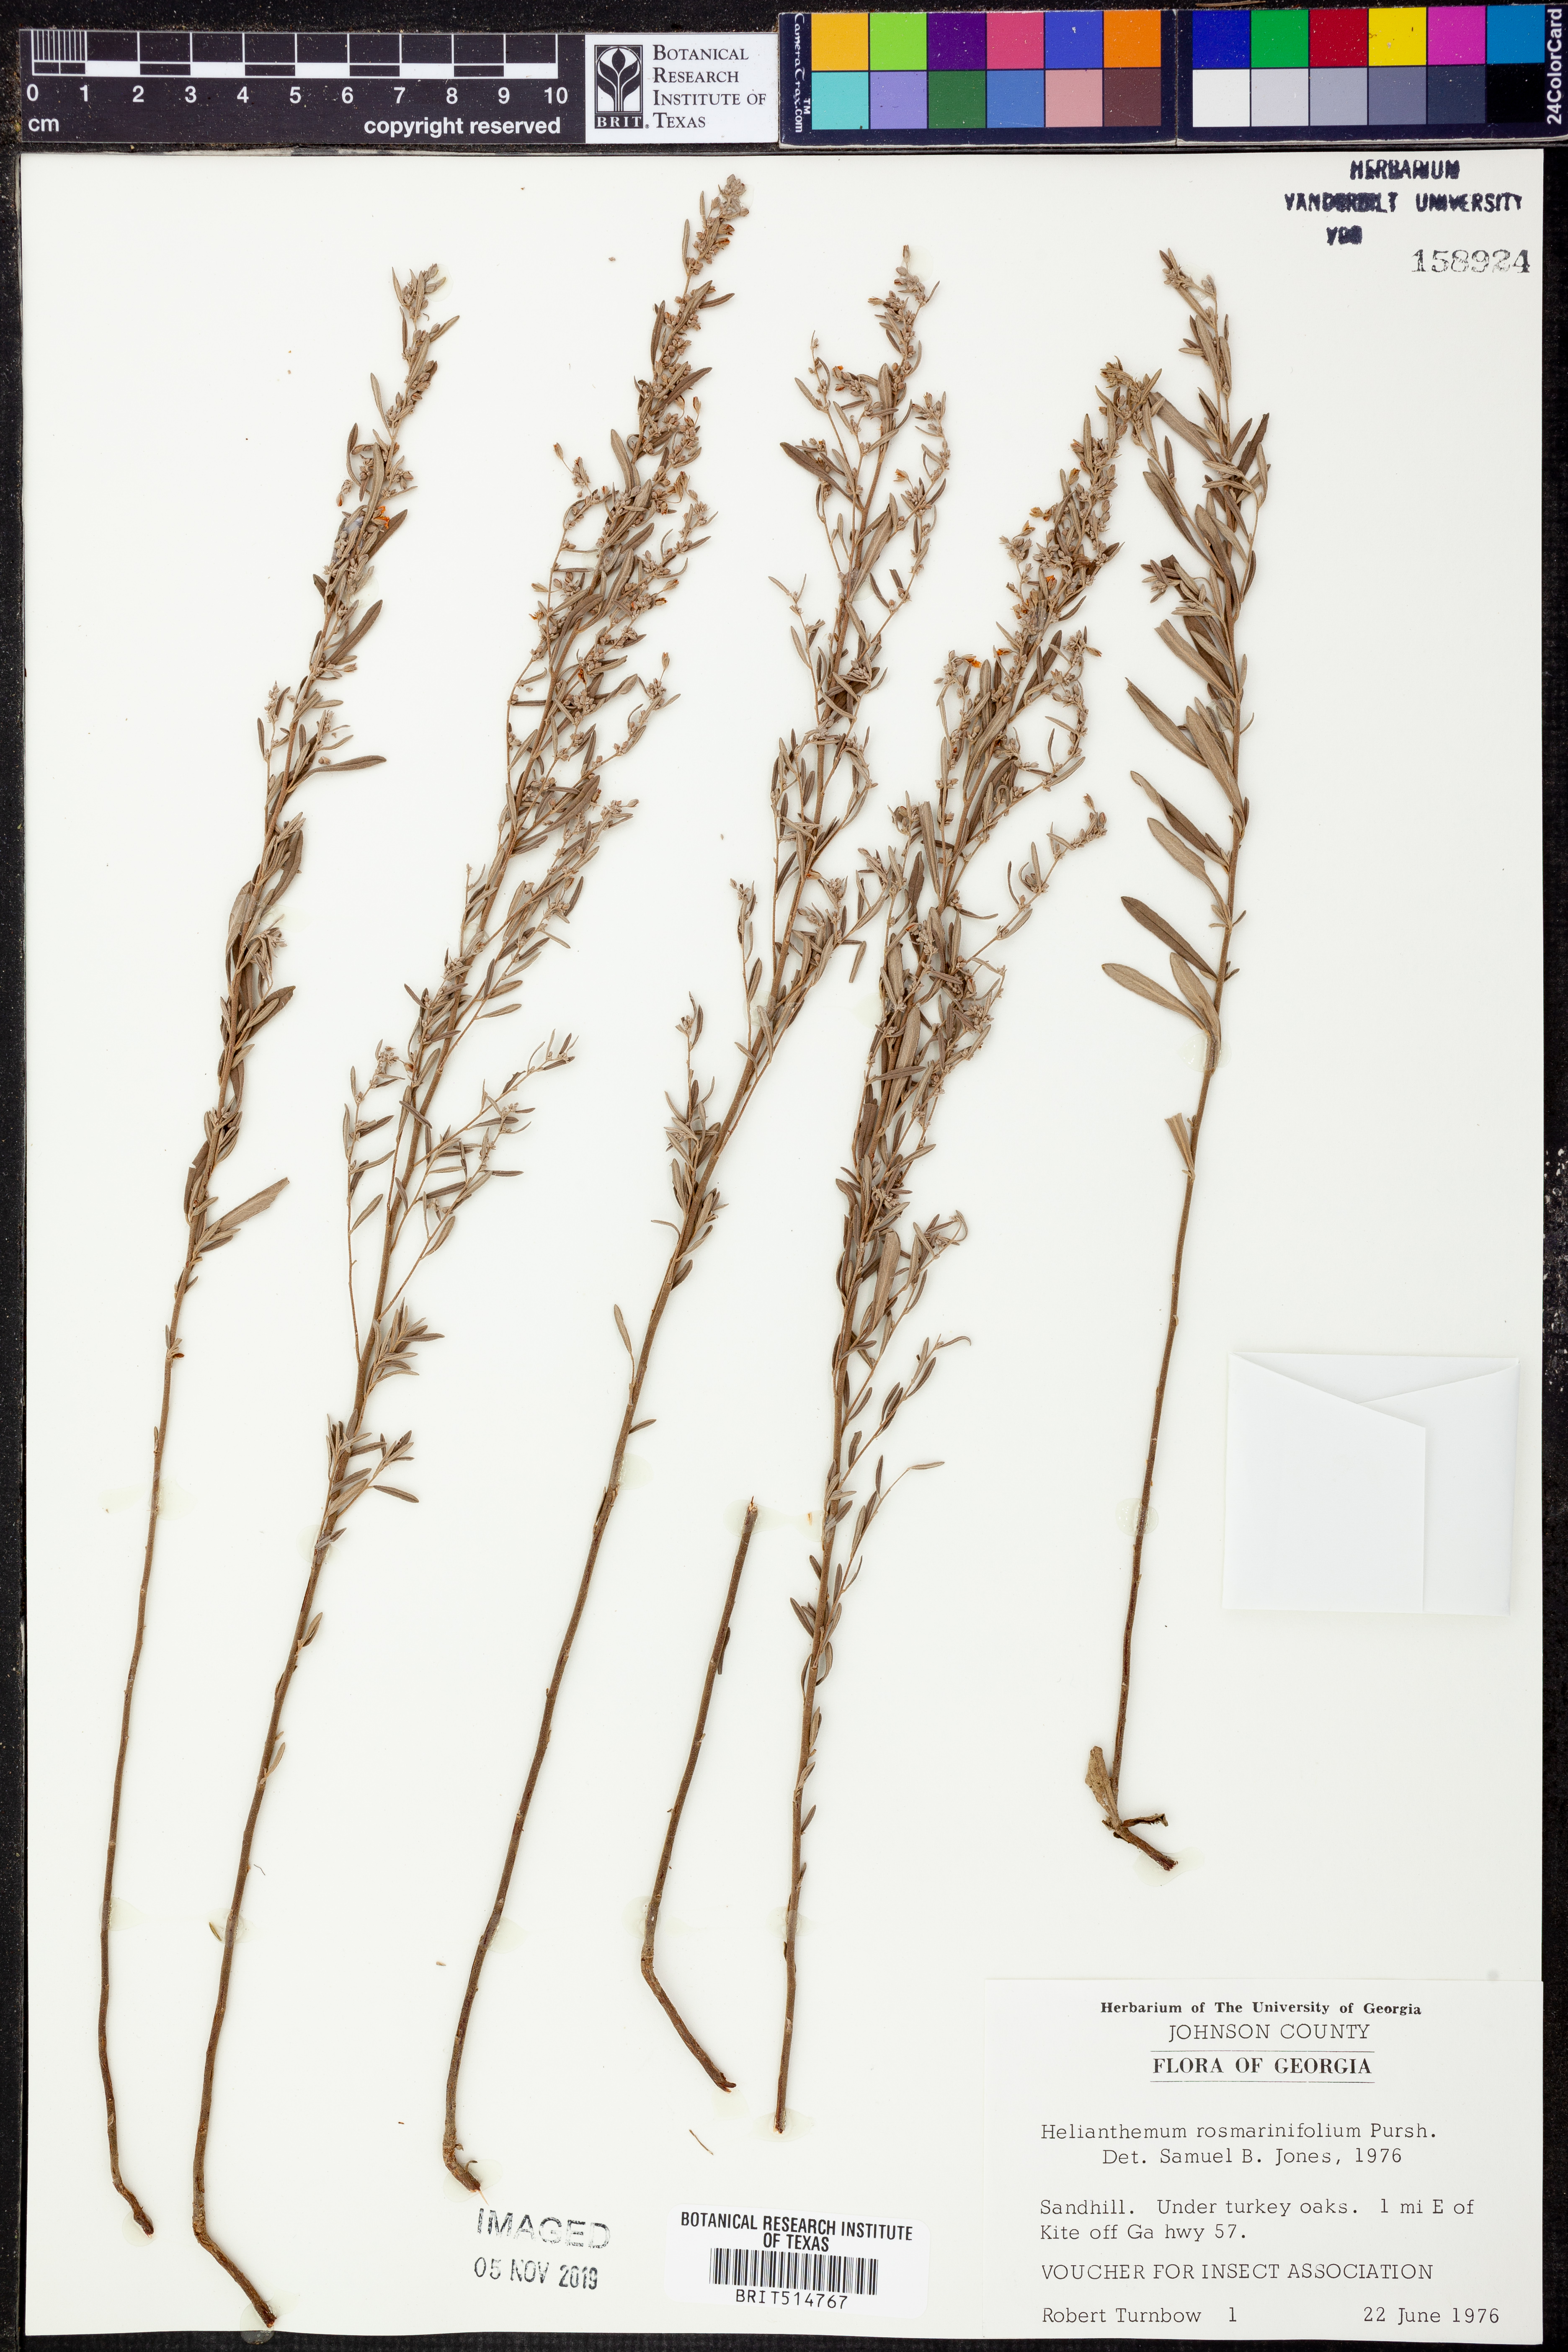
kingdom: Plantae
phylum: Tracheophyta
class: Magnoliopsida
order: Malvales
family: Cistaceae
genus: Crocanthemum
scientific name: Crocanthemum rosmarinifolium
